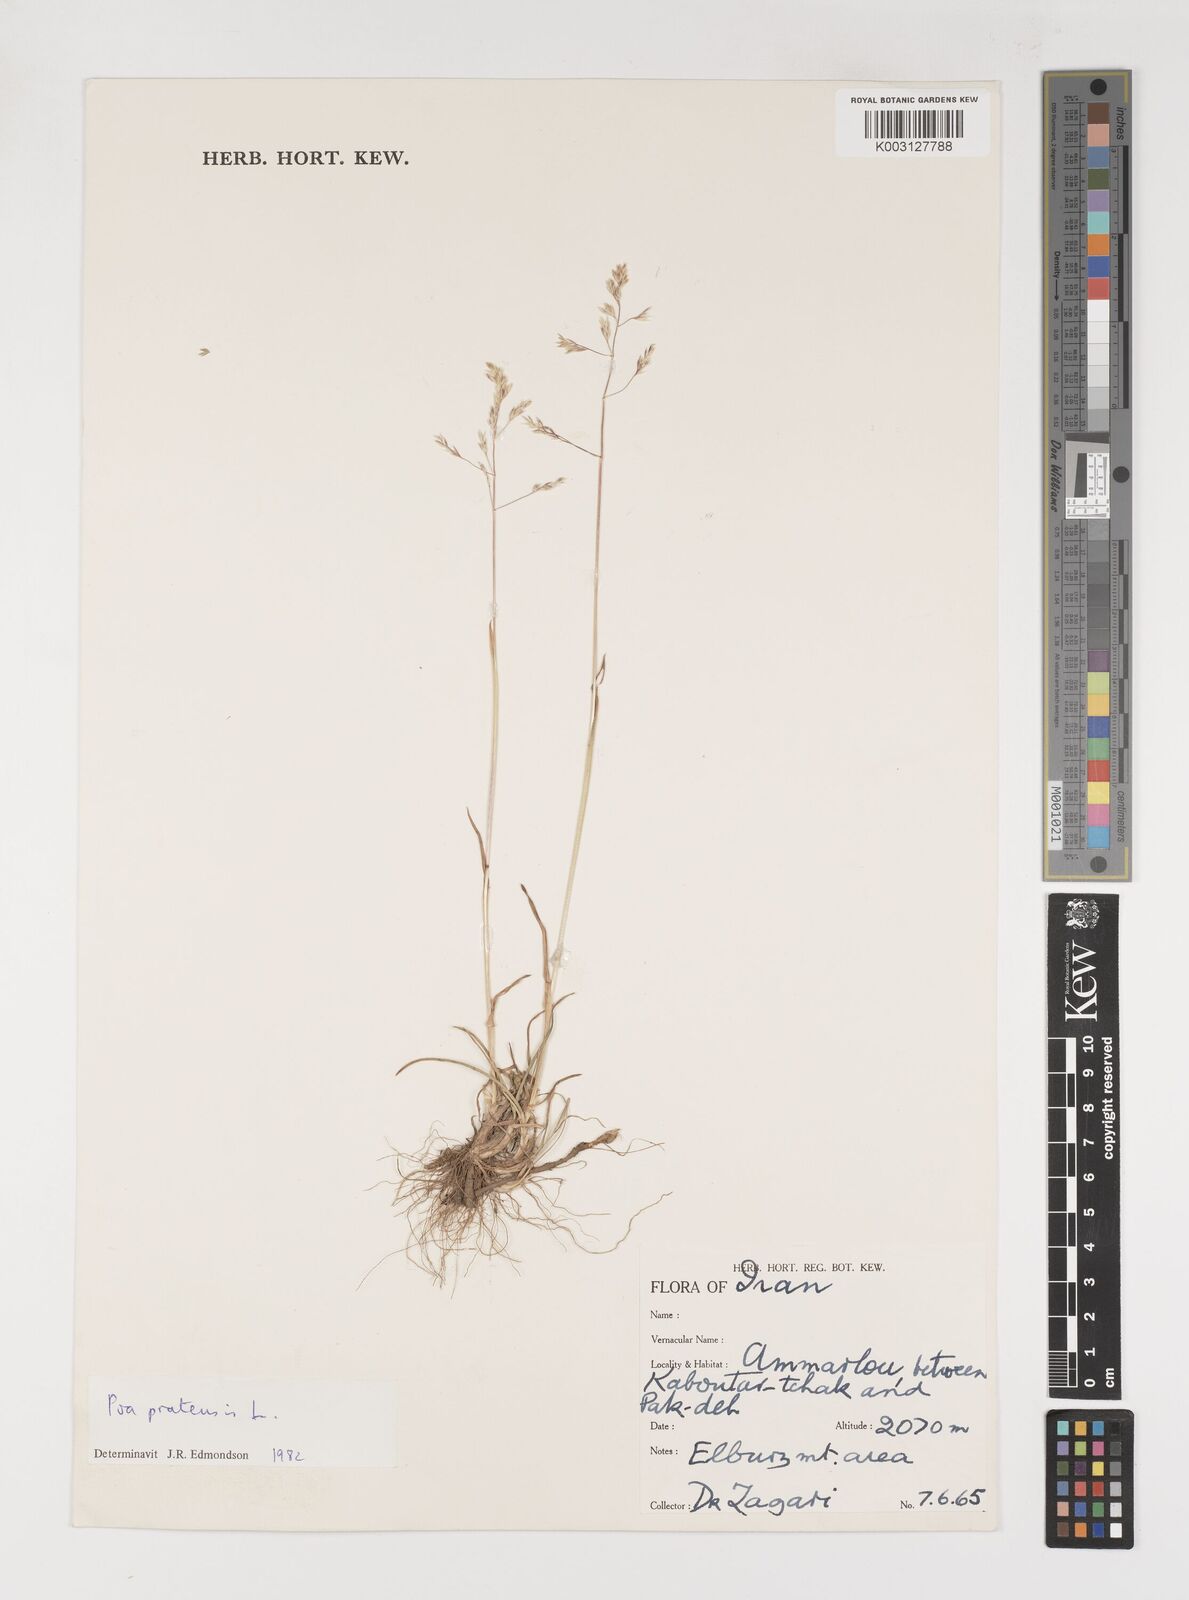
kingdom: Plantae
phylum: Tracheophyta
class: Liliopsida
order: Poales
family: Poaceae
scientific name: Poaceae
